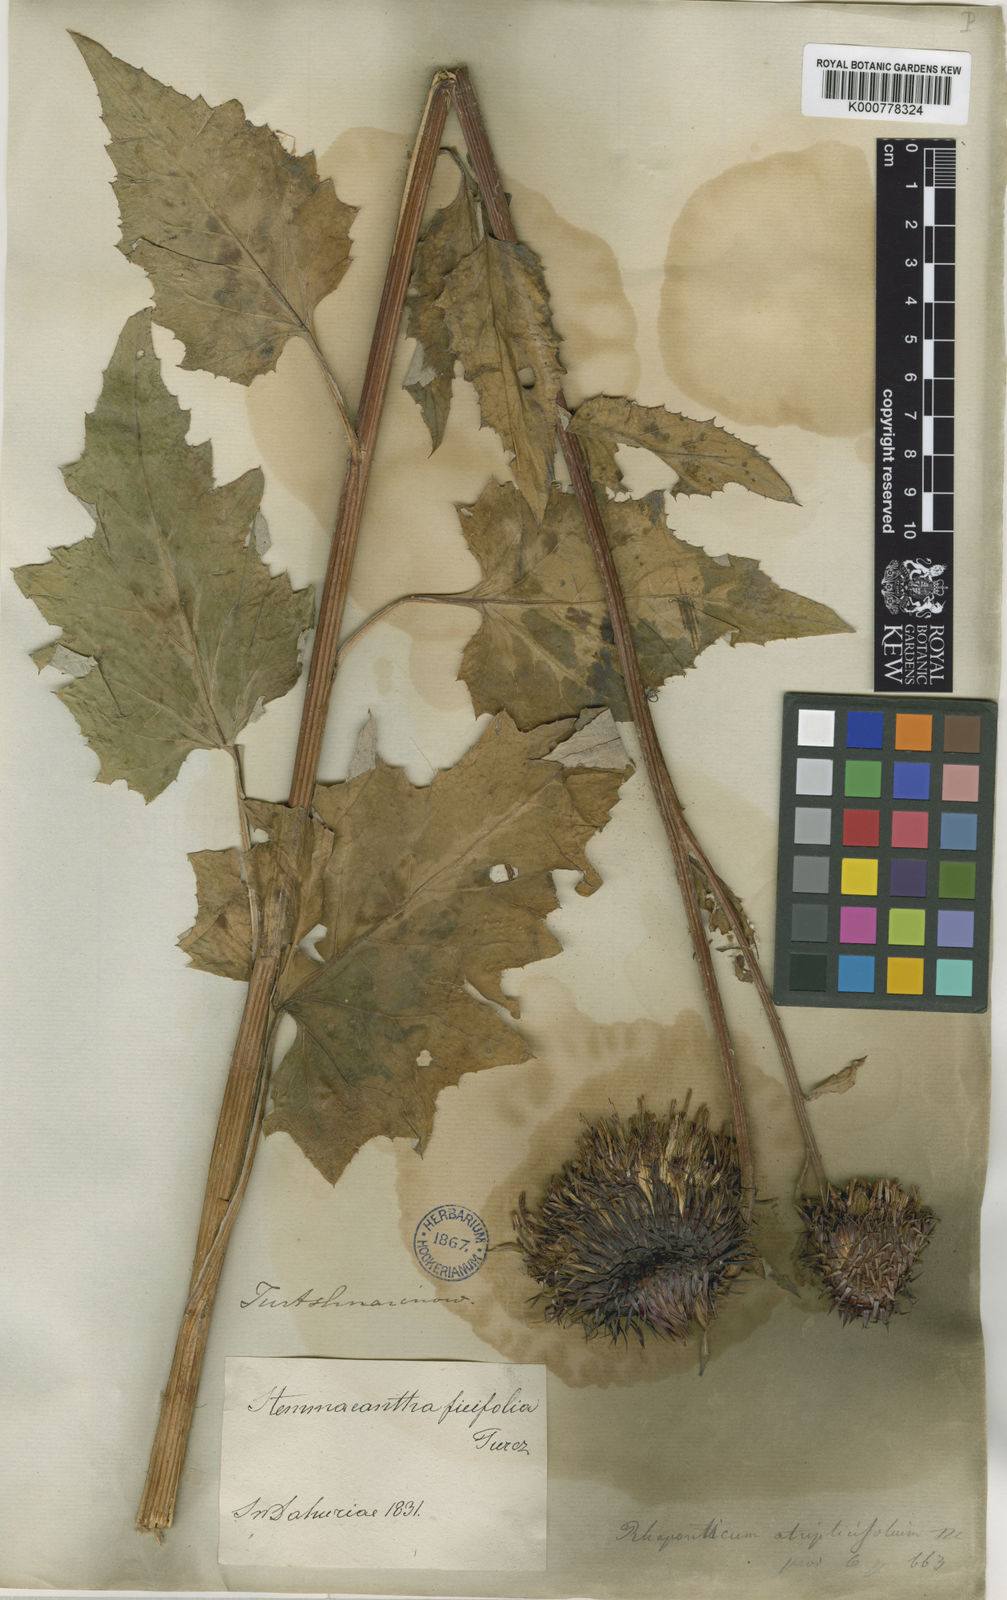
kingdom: Plantae
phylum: Tracheophyta
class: Magnoliopsida
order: Asterales
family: Asteraceae
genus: Olgaea
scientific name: Olgaea
